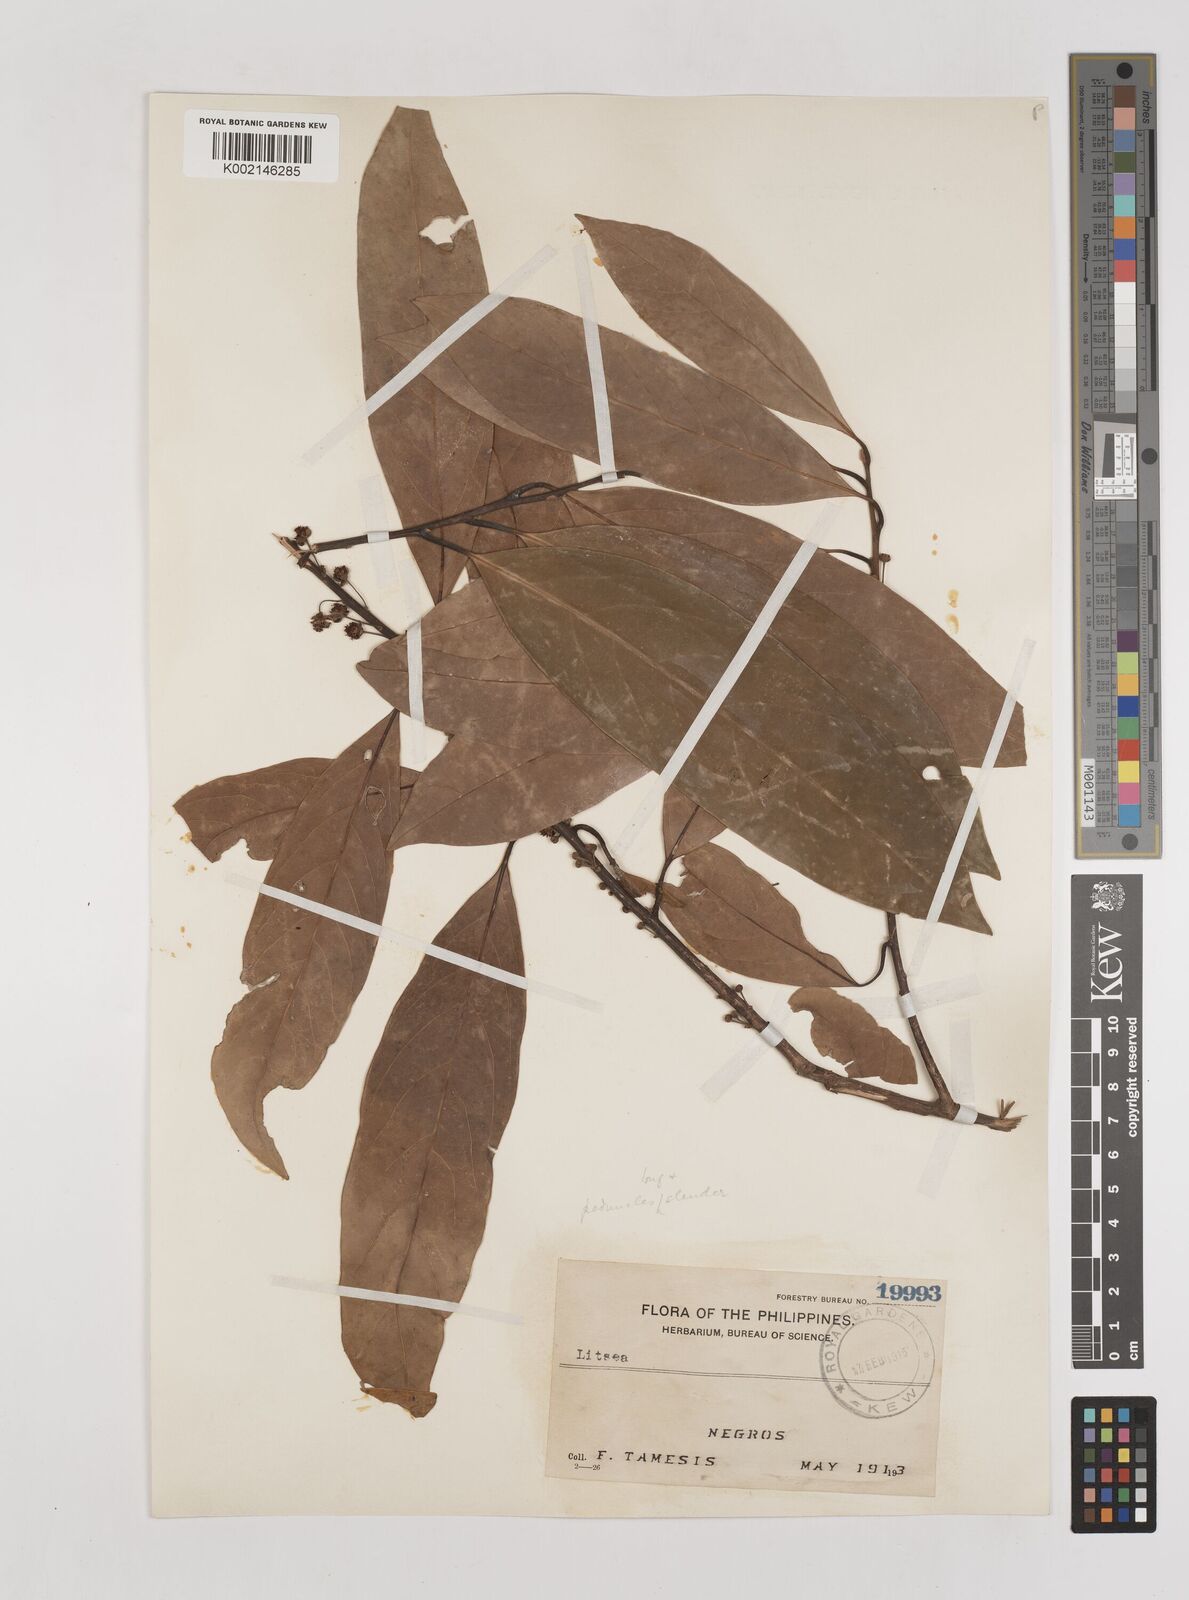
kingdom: Plantae
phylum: Tracheophyta
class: Magnoliopsida
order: Laurales
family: Lauraceae
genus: Litsea
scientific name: Litsea
